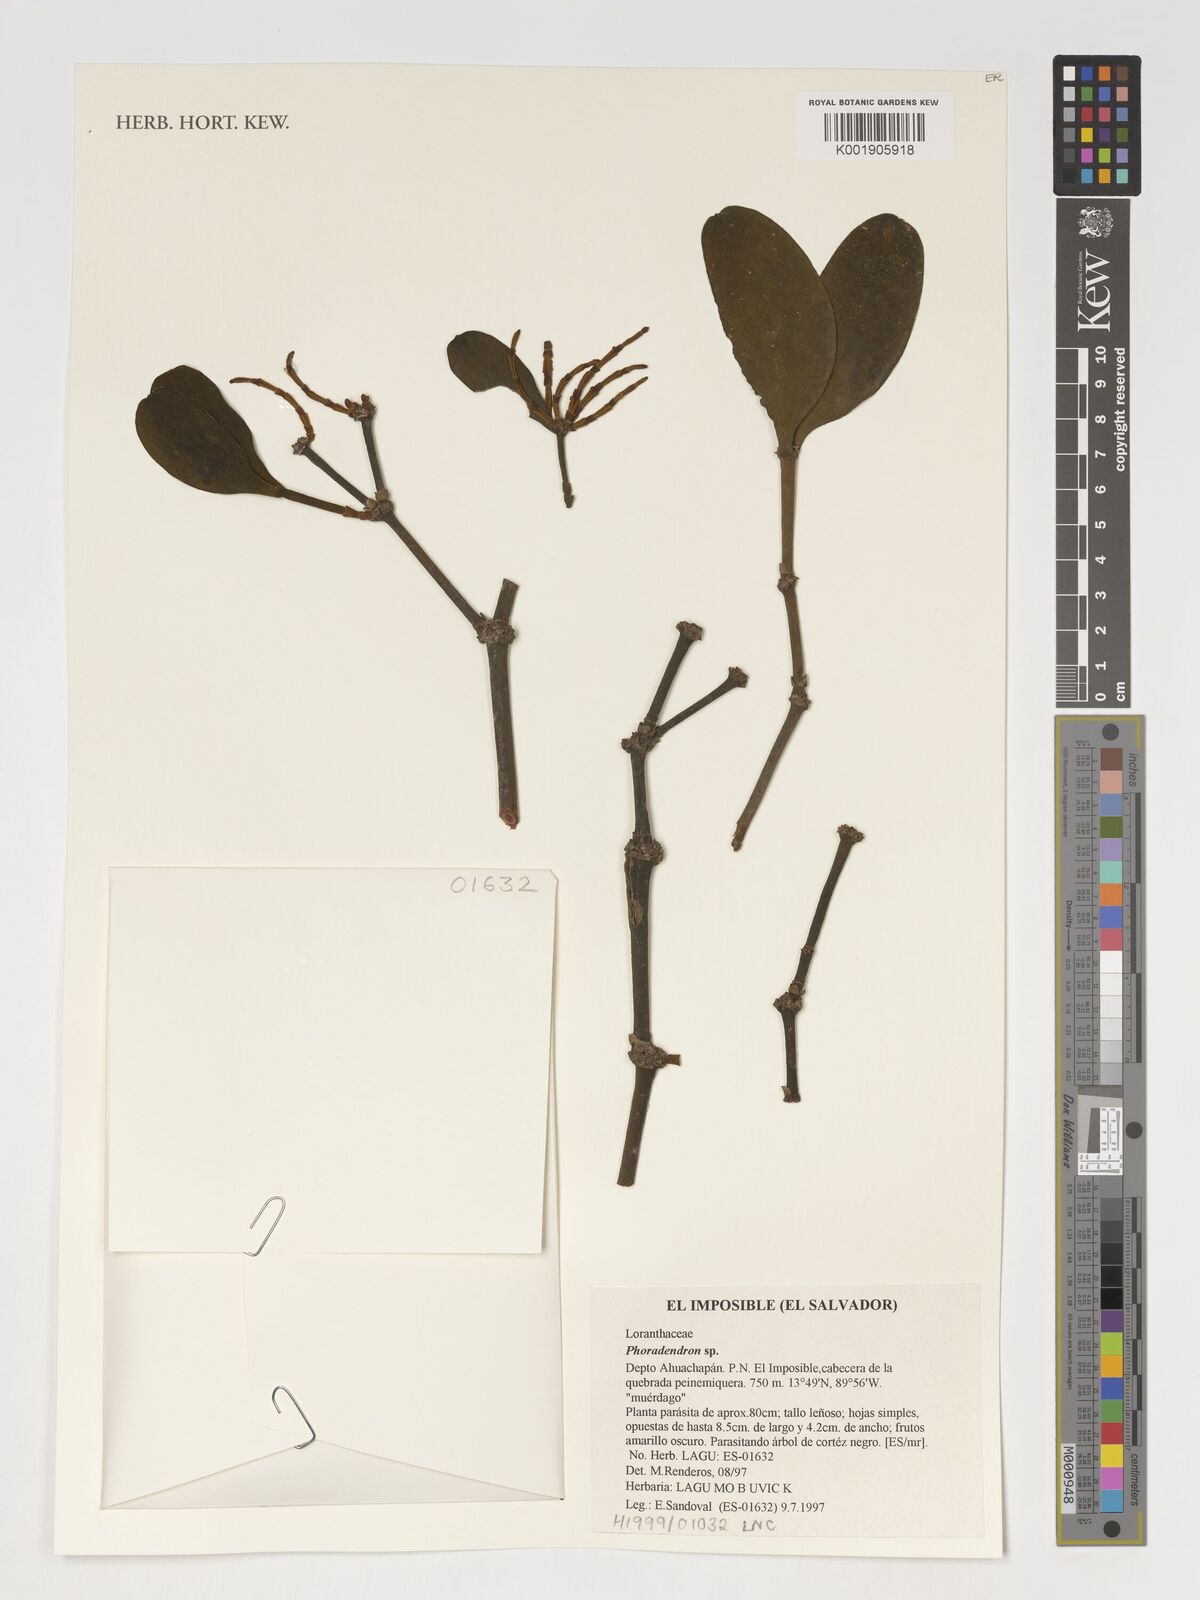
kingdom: Plantae
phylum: Tracheophyta
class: Magnoliopsida
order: Santalales
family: Viscaceae
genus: Phoradendron
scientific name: Phoradendron
